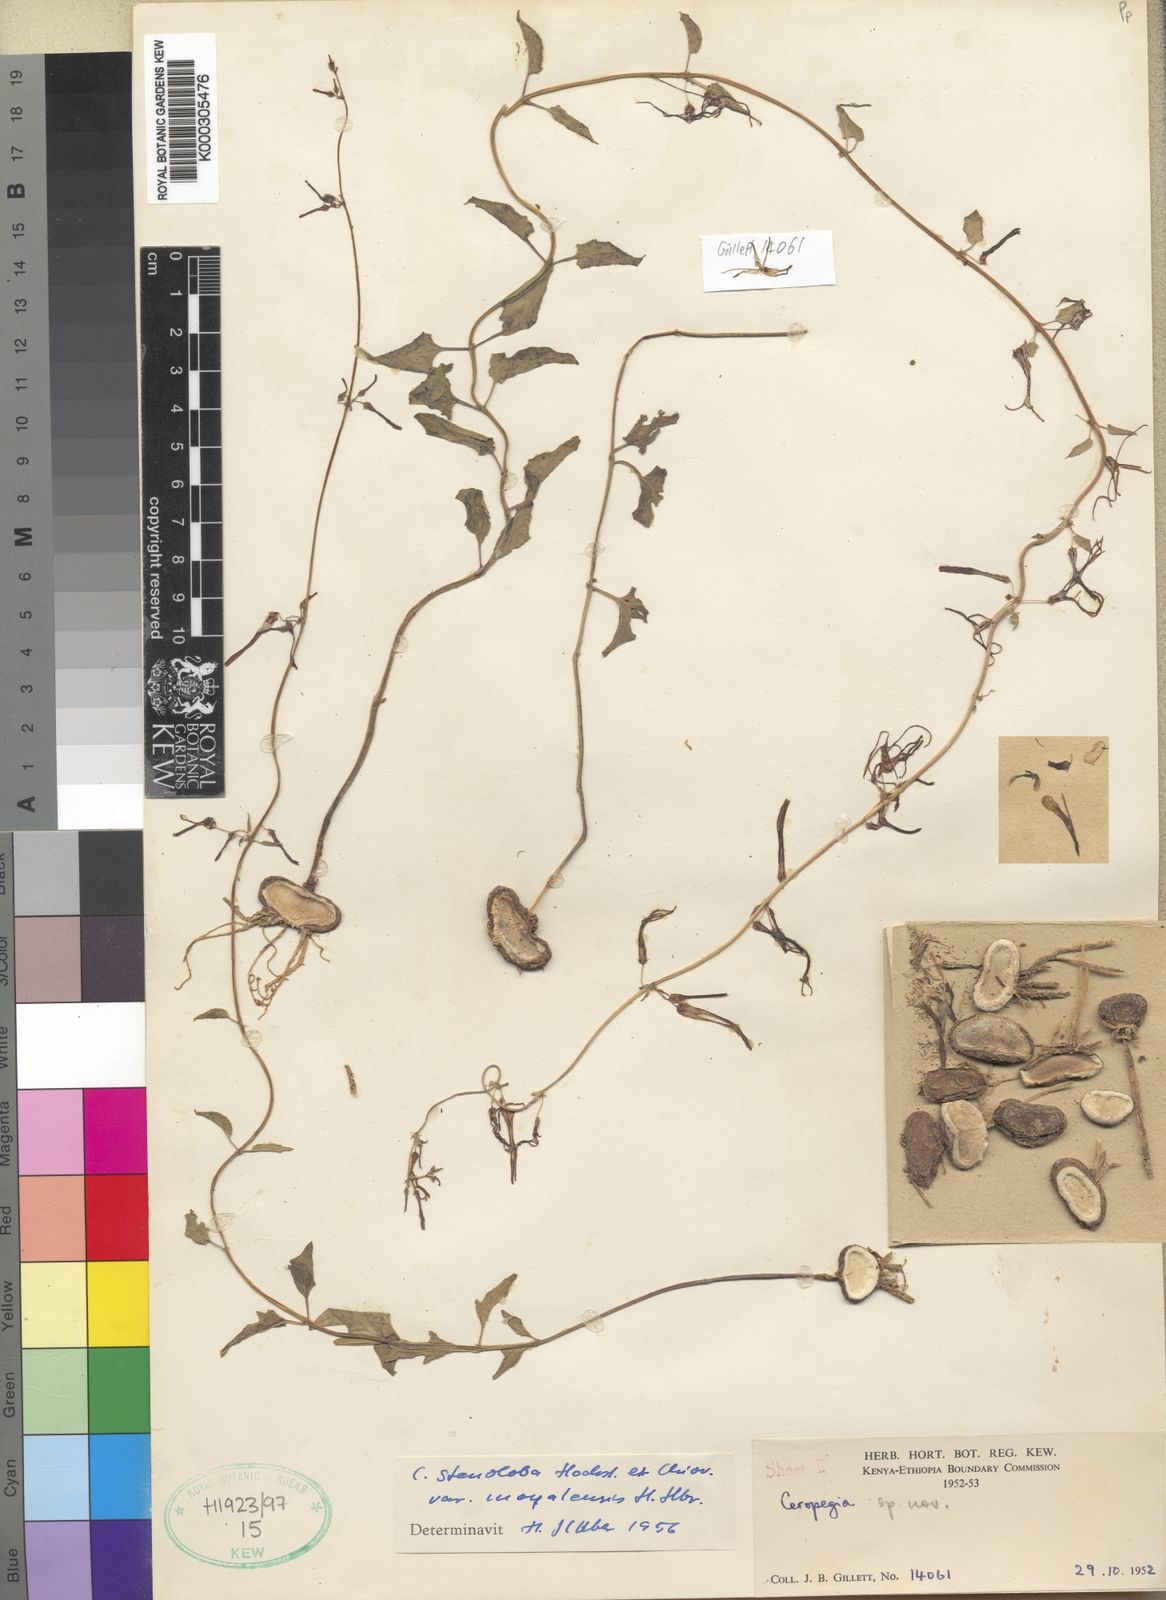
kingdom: Plantae
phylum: Tracheophyta
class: Magnoliopsida
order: Gentianales
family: Apocynaceae
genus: Ceropegia
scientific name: Ceropegia stenoloba
